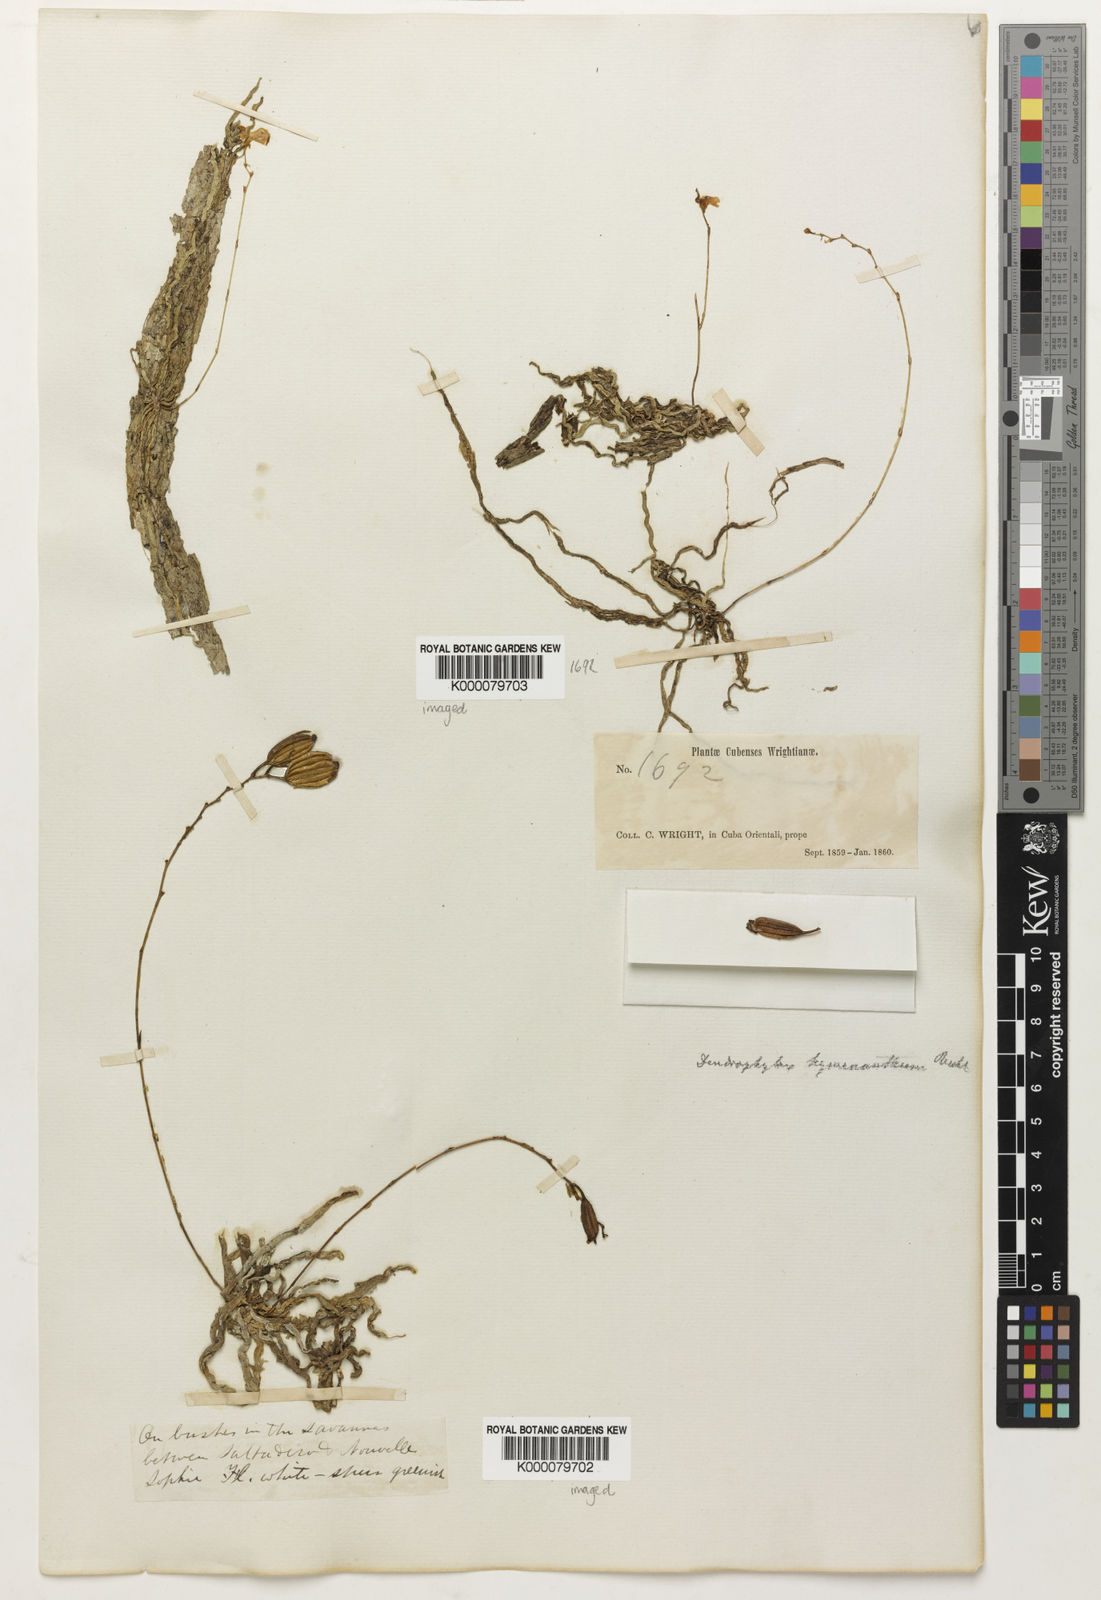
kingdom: Plantae
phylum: Tracheophyta
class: Liliopsida
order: Asparagales
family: Orchidaceae
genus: Dendrophylax
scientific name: Dendrophylax varius
